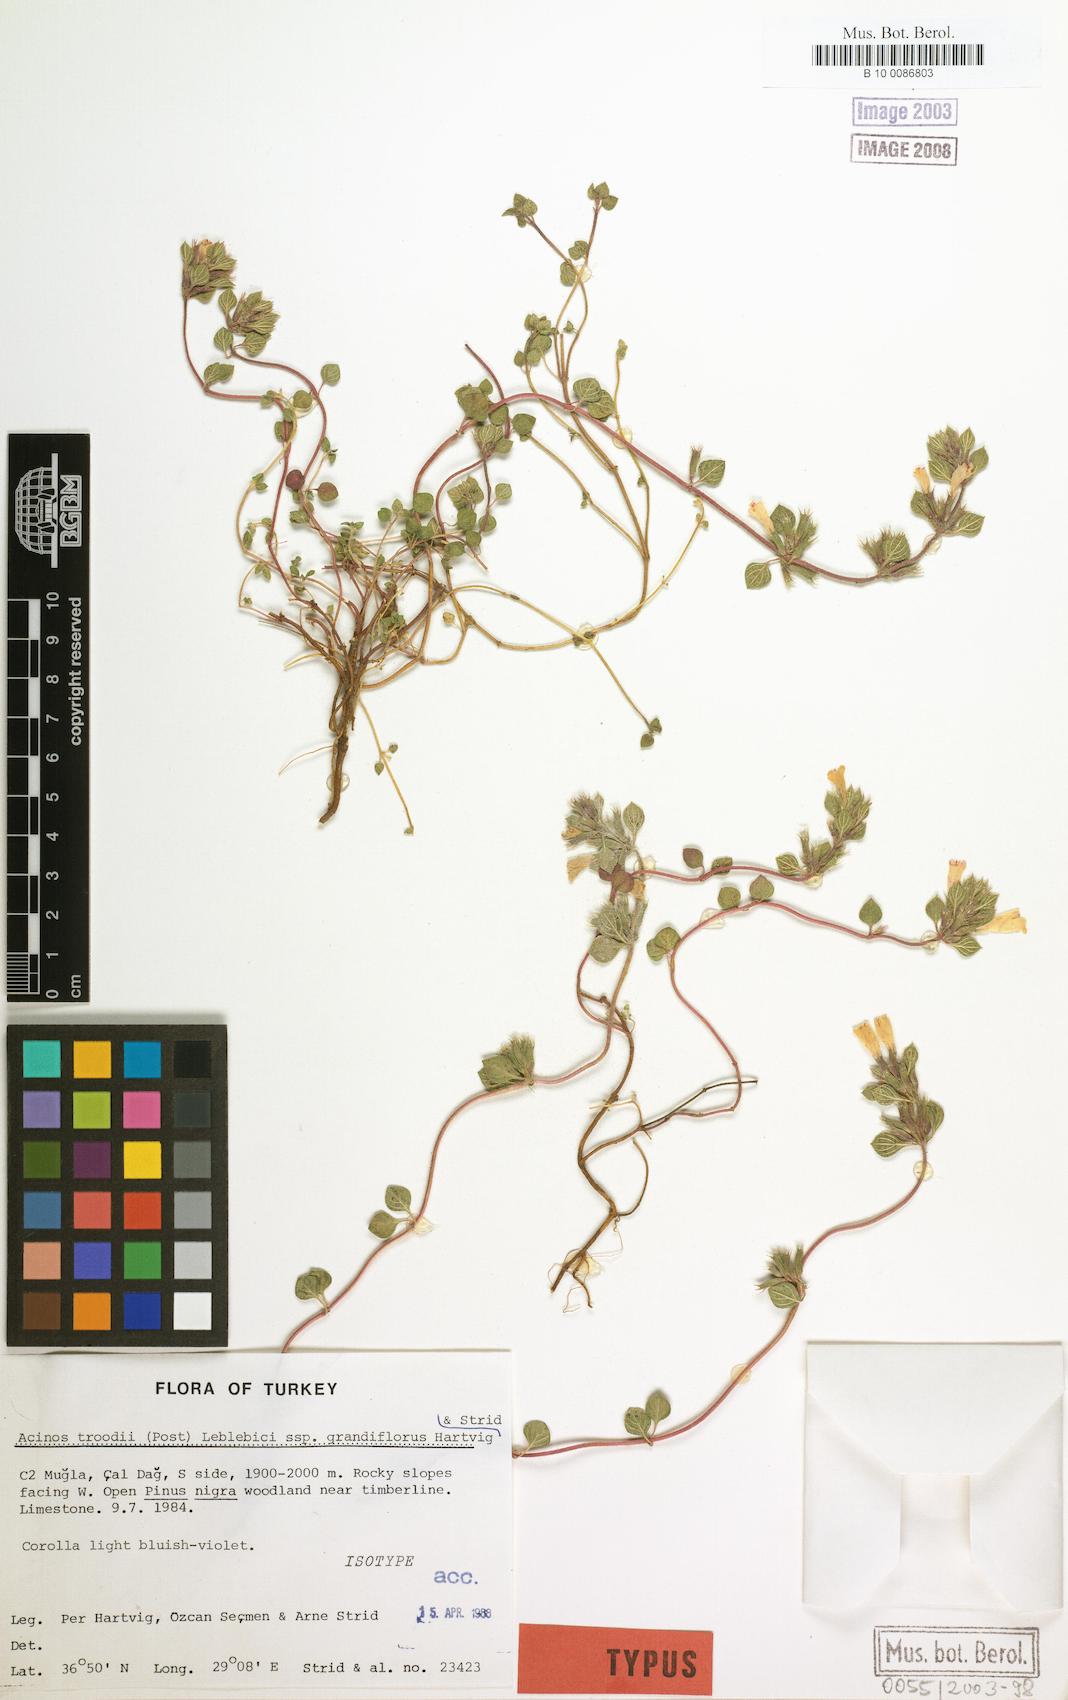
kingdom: Plantae
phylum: Tracheophyta
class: Magnoliopsida
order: Lamiales
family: Lamiaceae
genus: Clinopodium
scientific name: Clinopodium troodi
